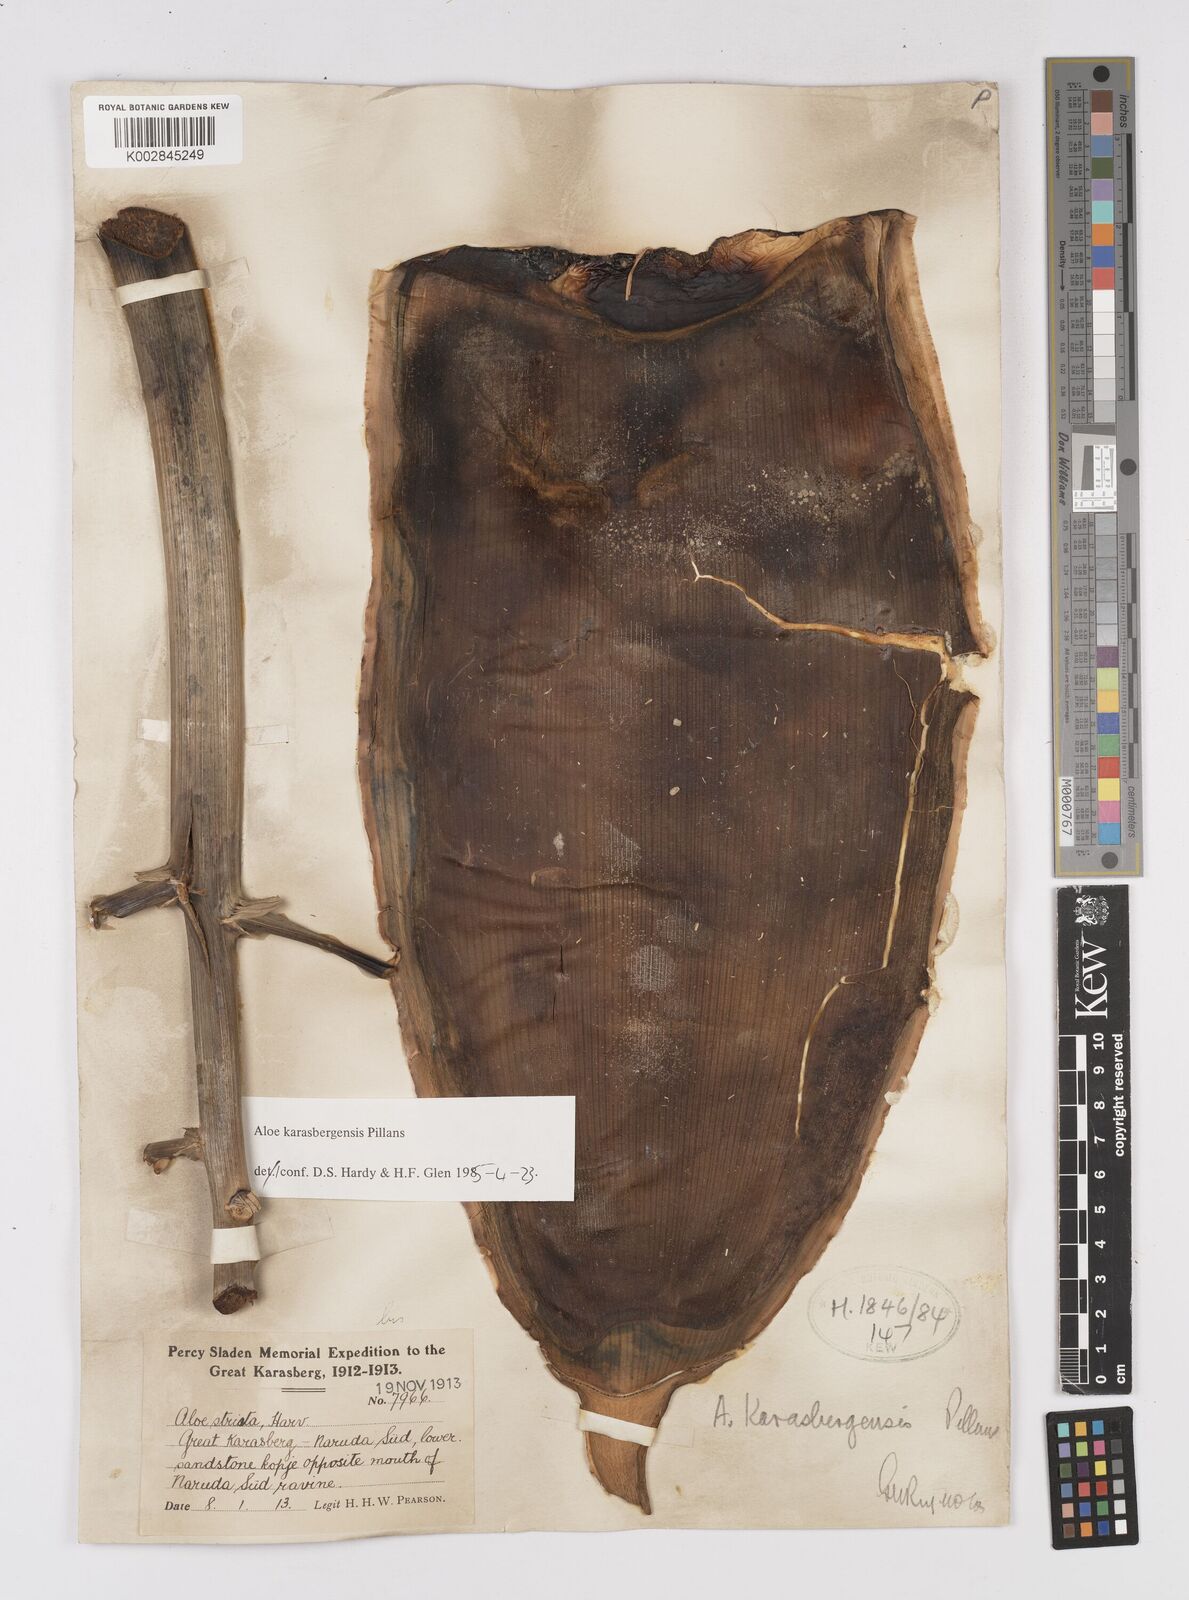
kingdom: Plantae
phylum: Tracheophyta
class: Liliopsida
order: Asparagales
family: Asphodelaceae
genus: Aloe
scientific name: Aloe karasbergensis
